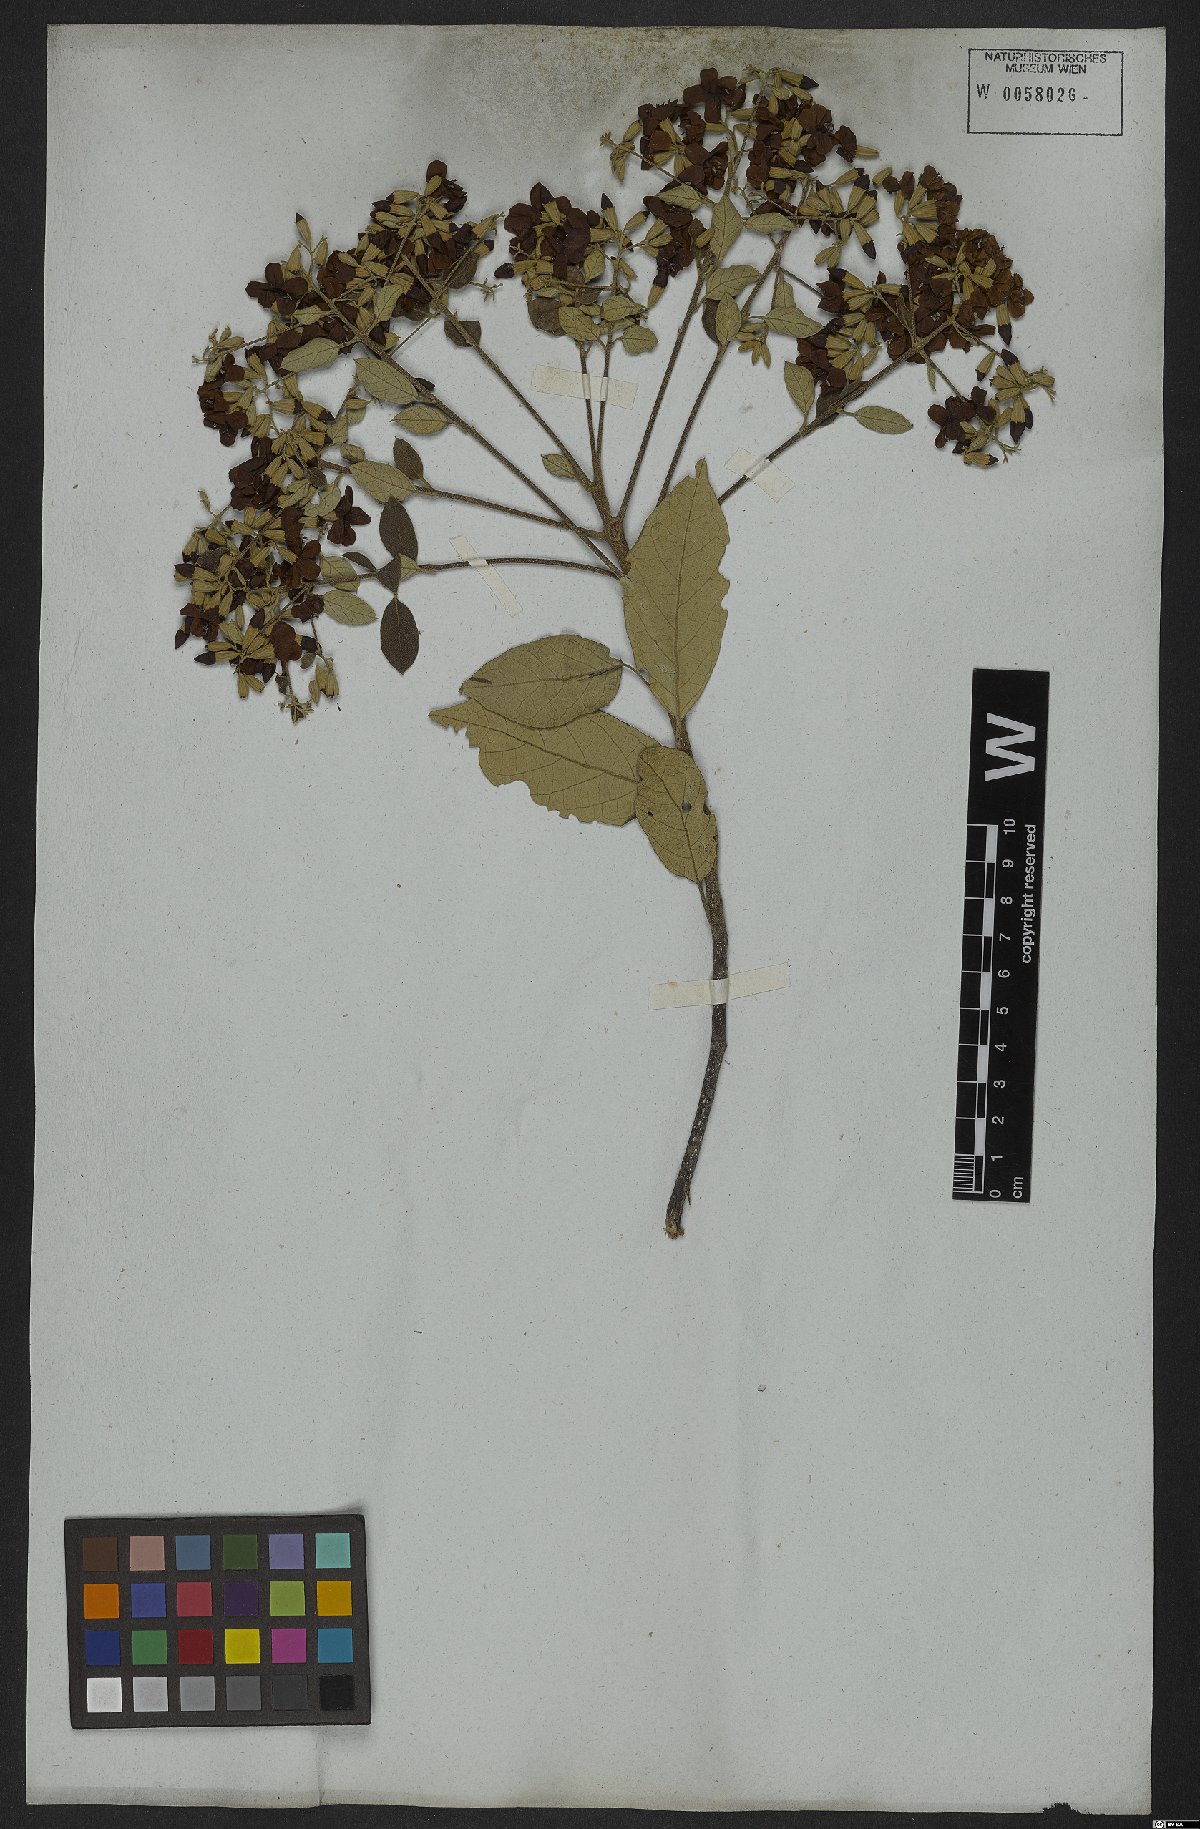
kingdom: Plantae
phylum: Tracheophyta
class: Magnoliopsida
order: Boraginales
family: Cordiaceae
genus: Cordia
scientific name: Cordia alliodora
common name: Spanish elm
